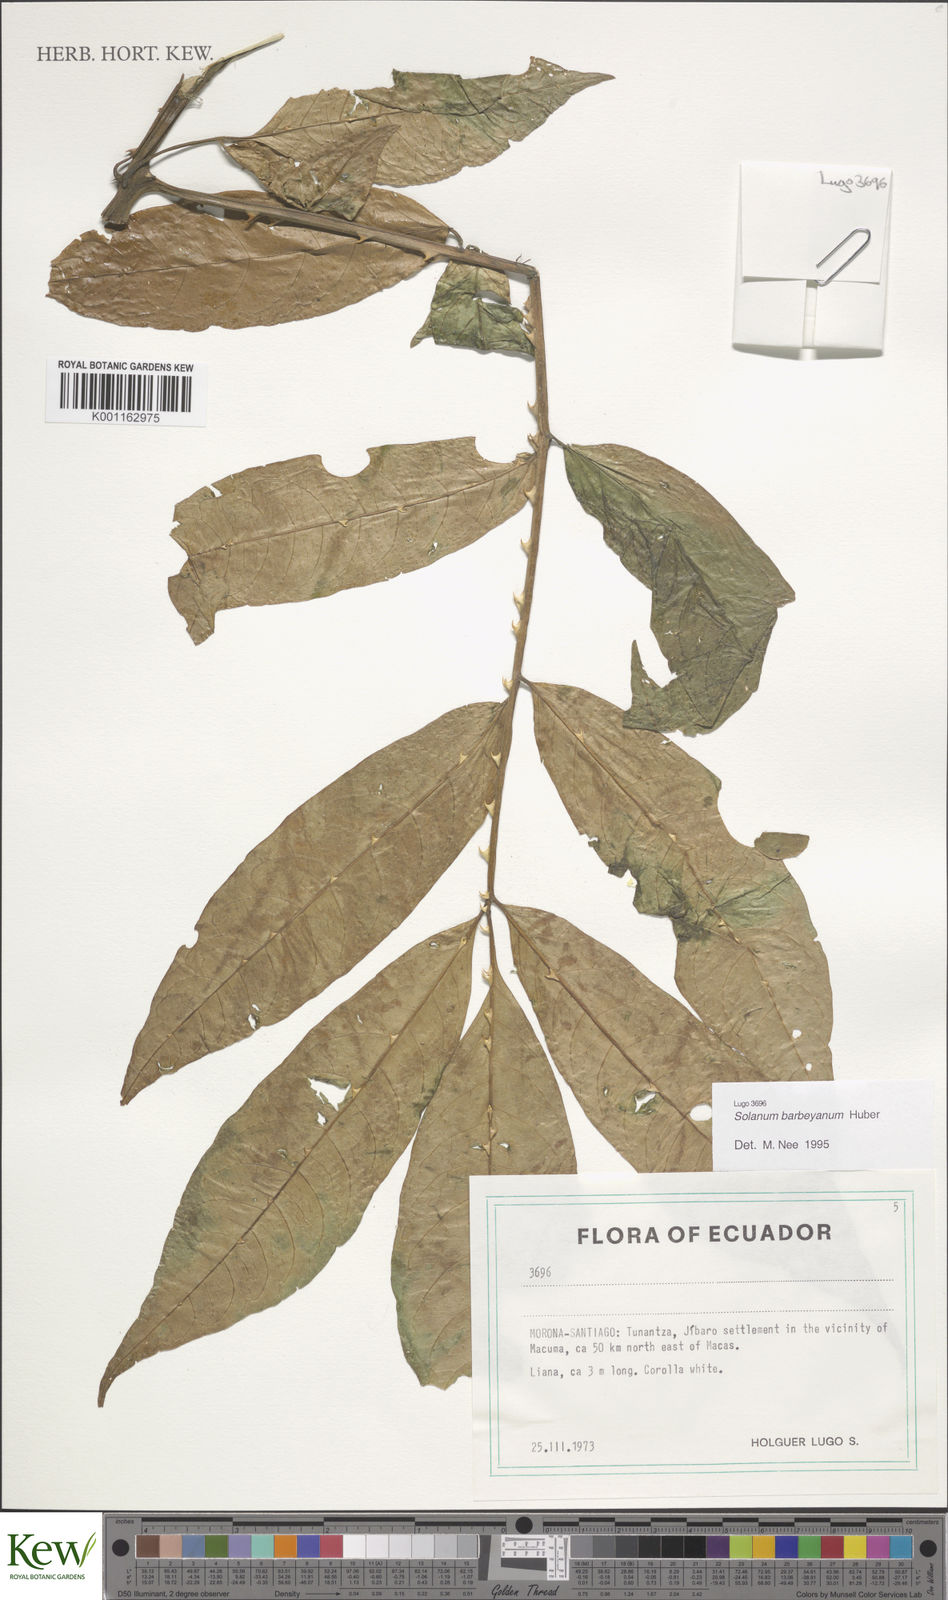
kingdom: Plantae
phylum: Tracheophyta
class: Magnoliopsida
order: Solanales
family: Solanaceae
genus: Solanum
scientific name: Solanum barbeyanum
